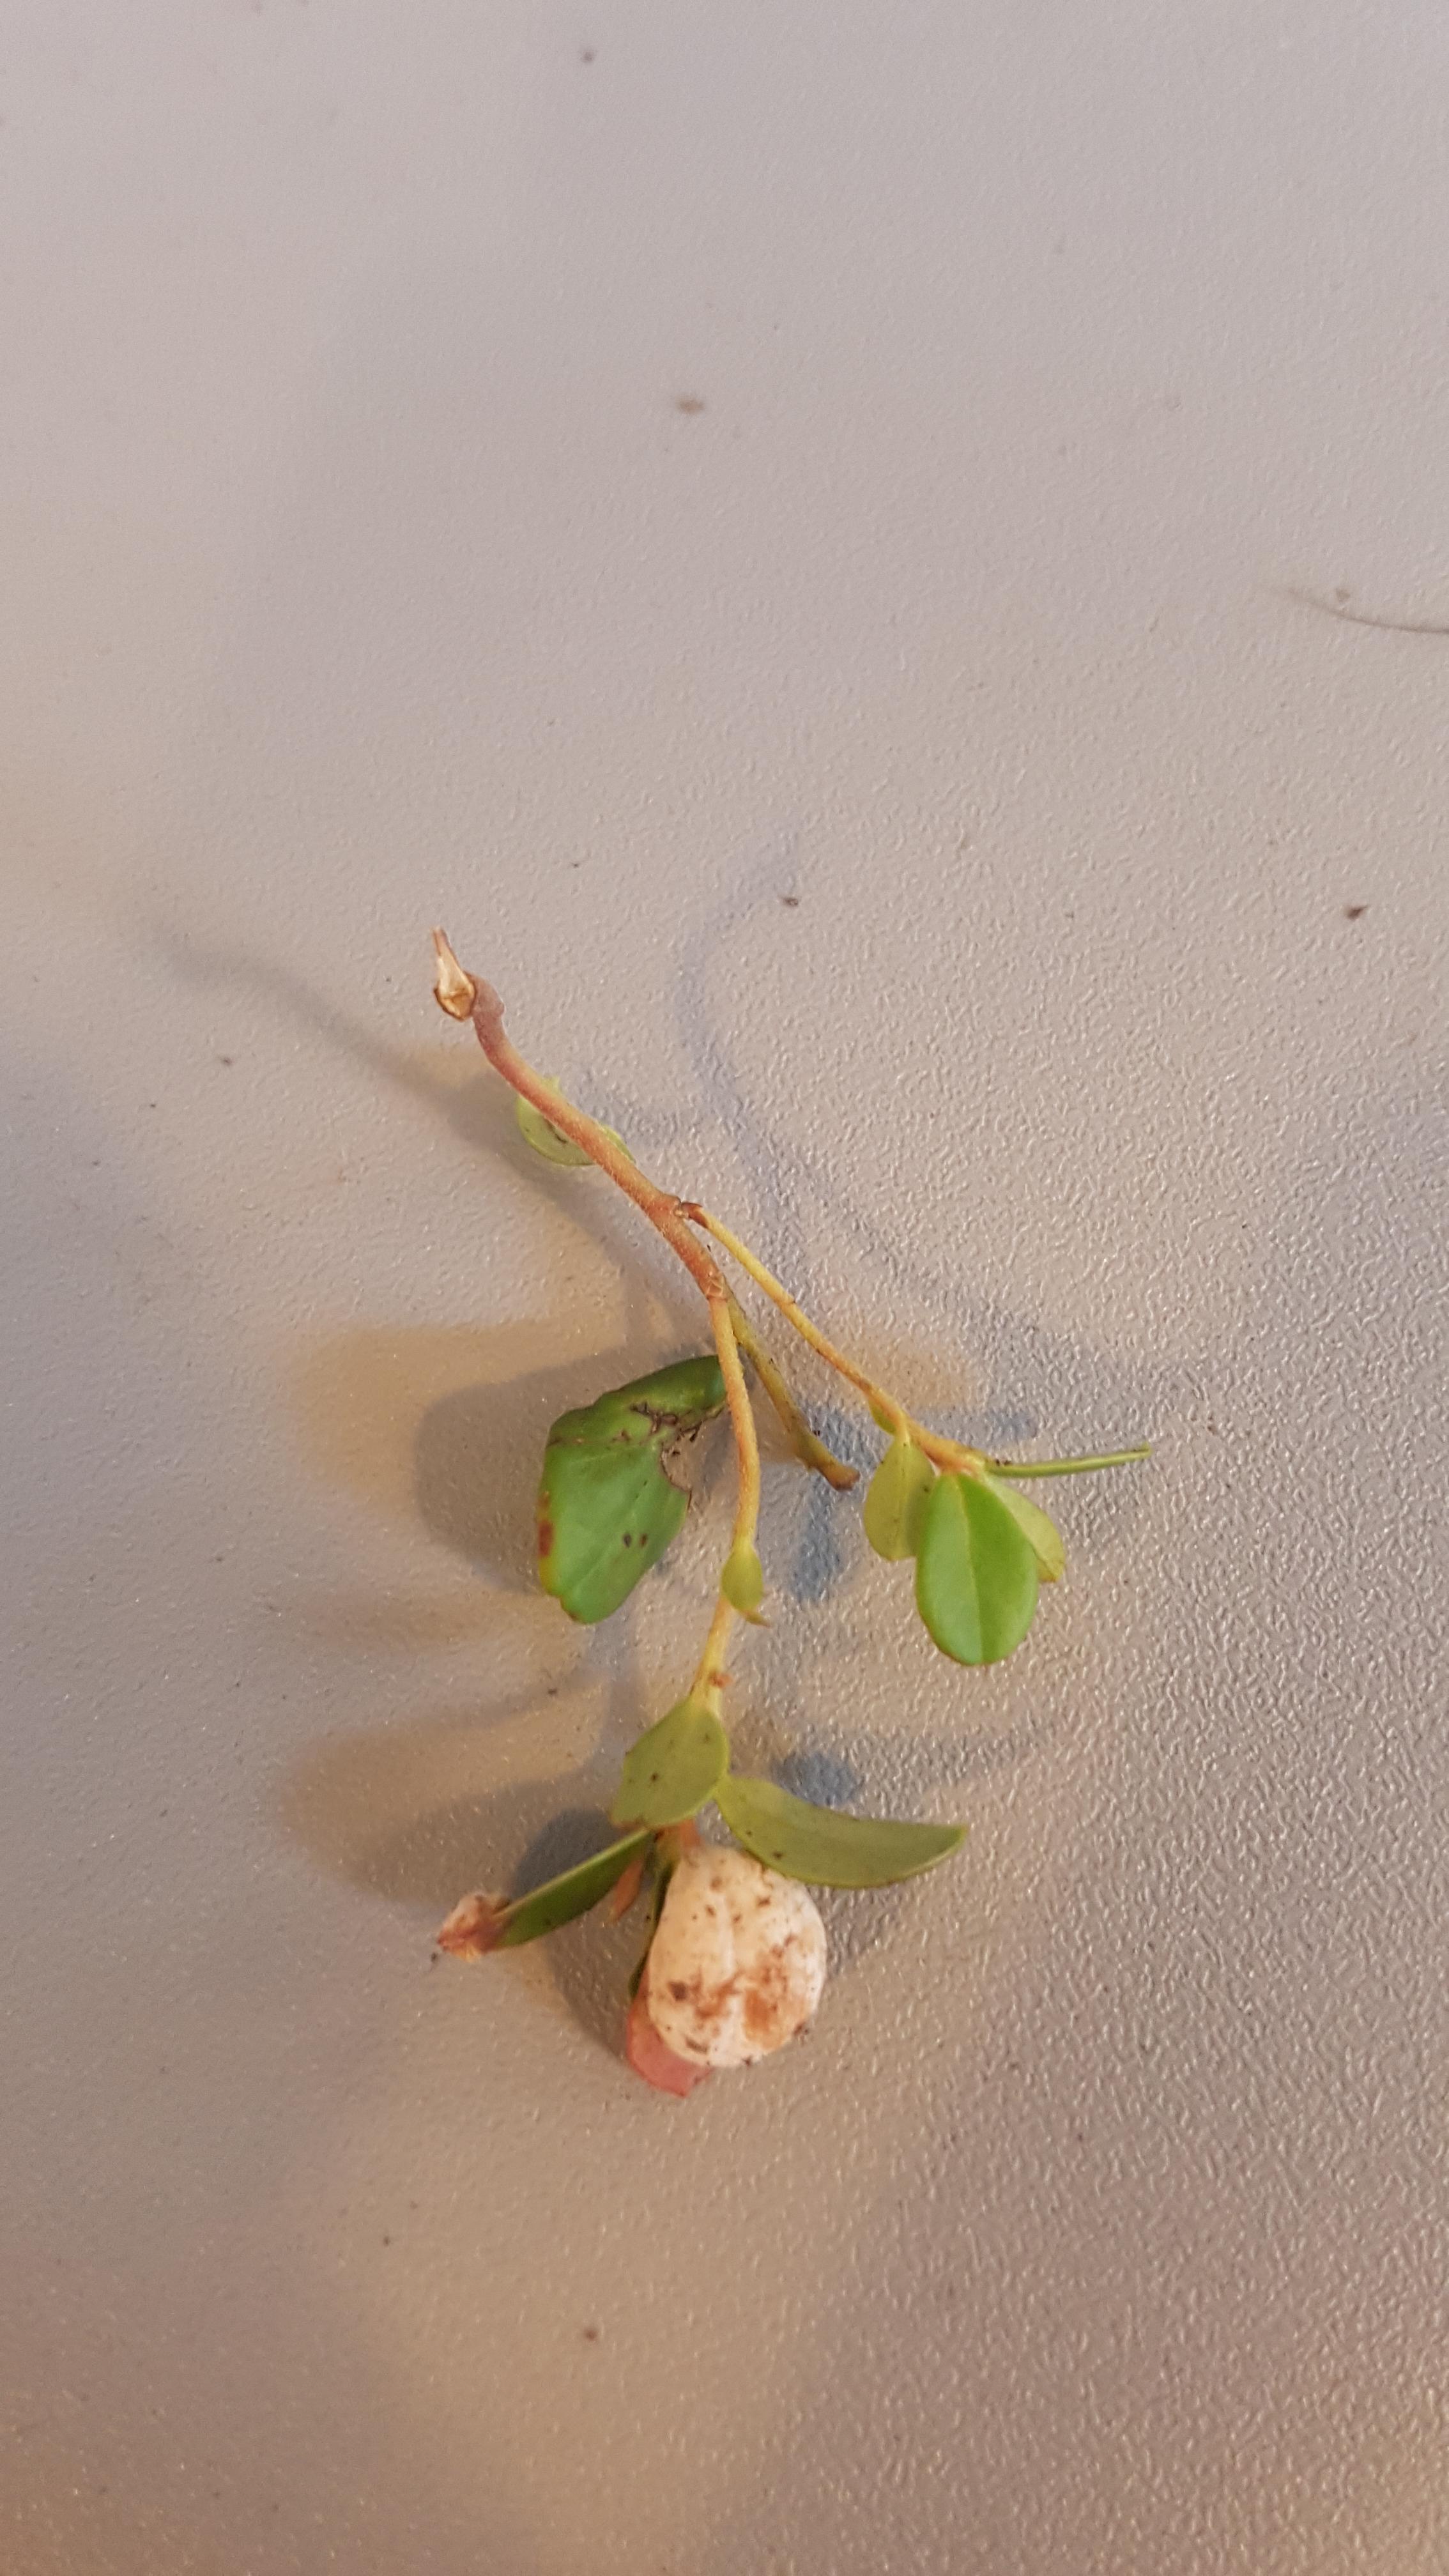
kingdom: Fungi
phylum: Basidiomycota
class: Exobasidiomycetes
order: Exobasidiales
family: Exobasidiaceae
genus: Exobasidium
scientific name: Exobasidium vaccinii
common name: tyttebærblad-bøllesvamp
